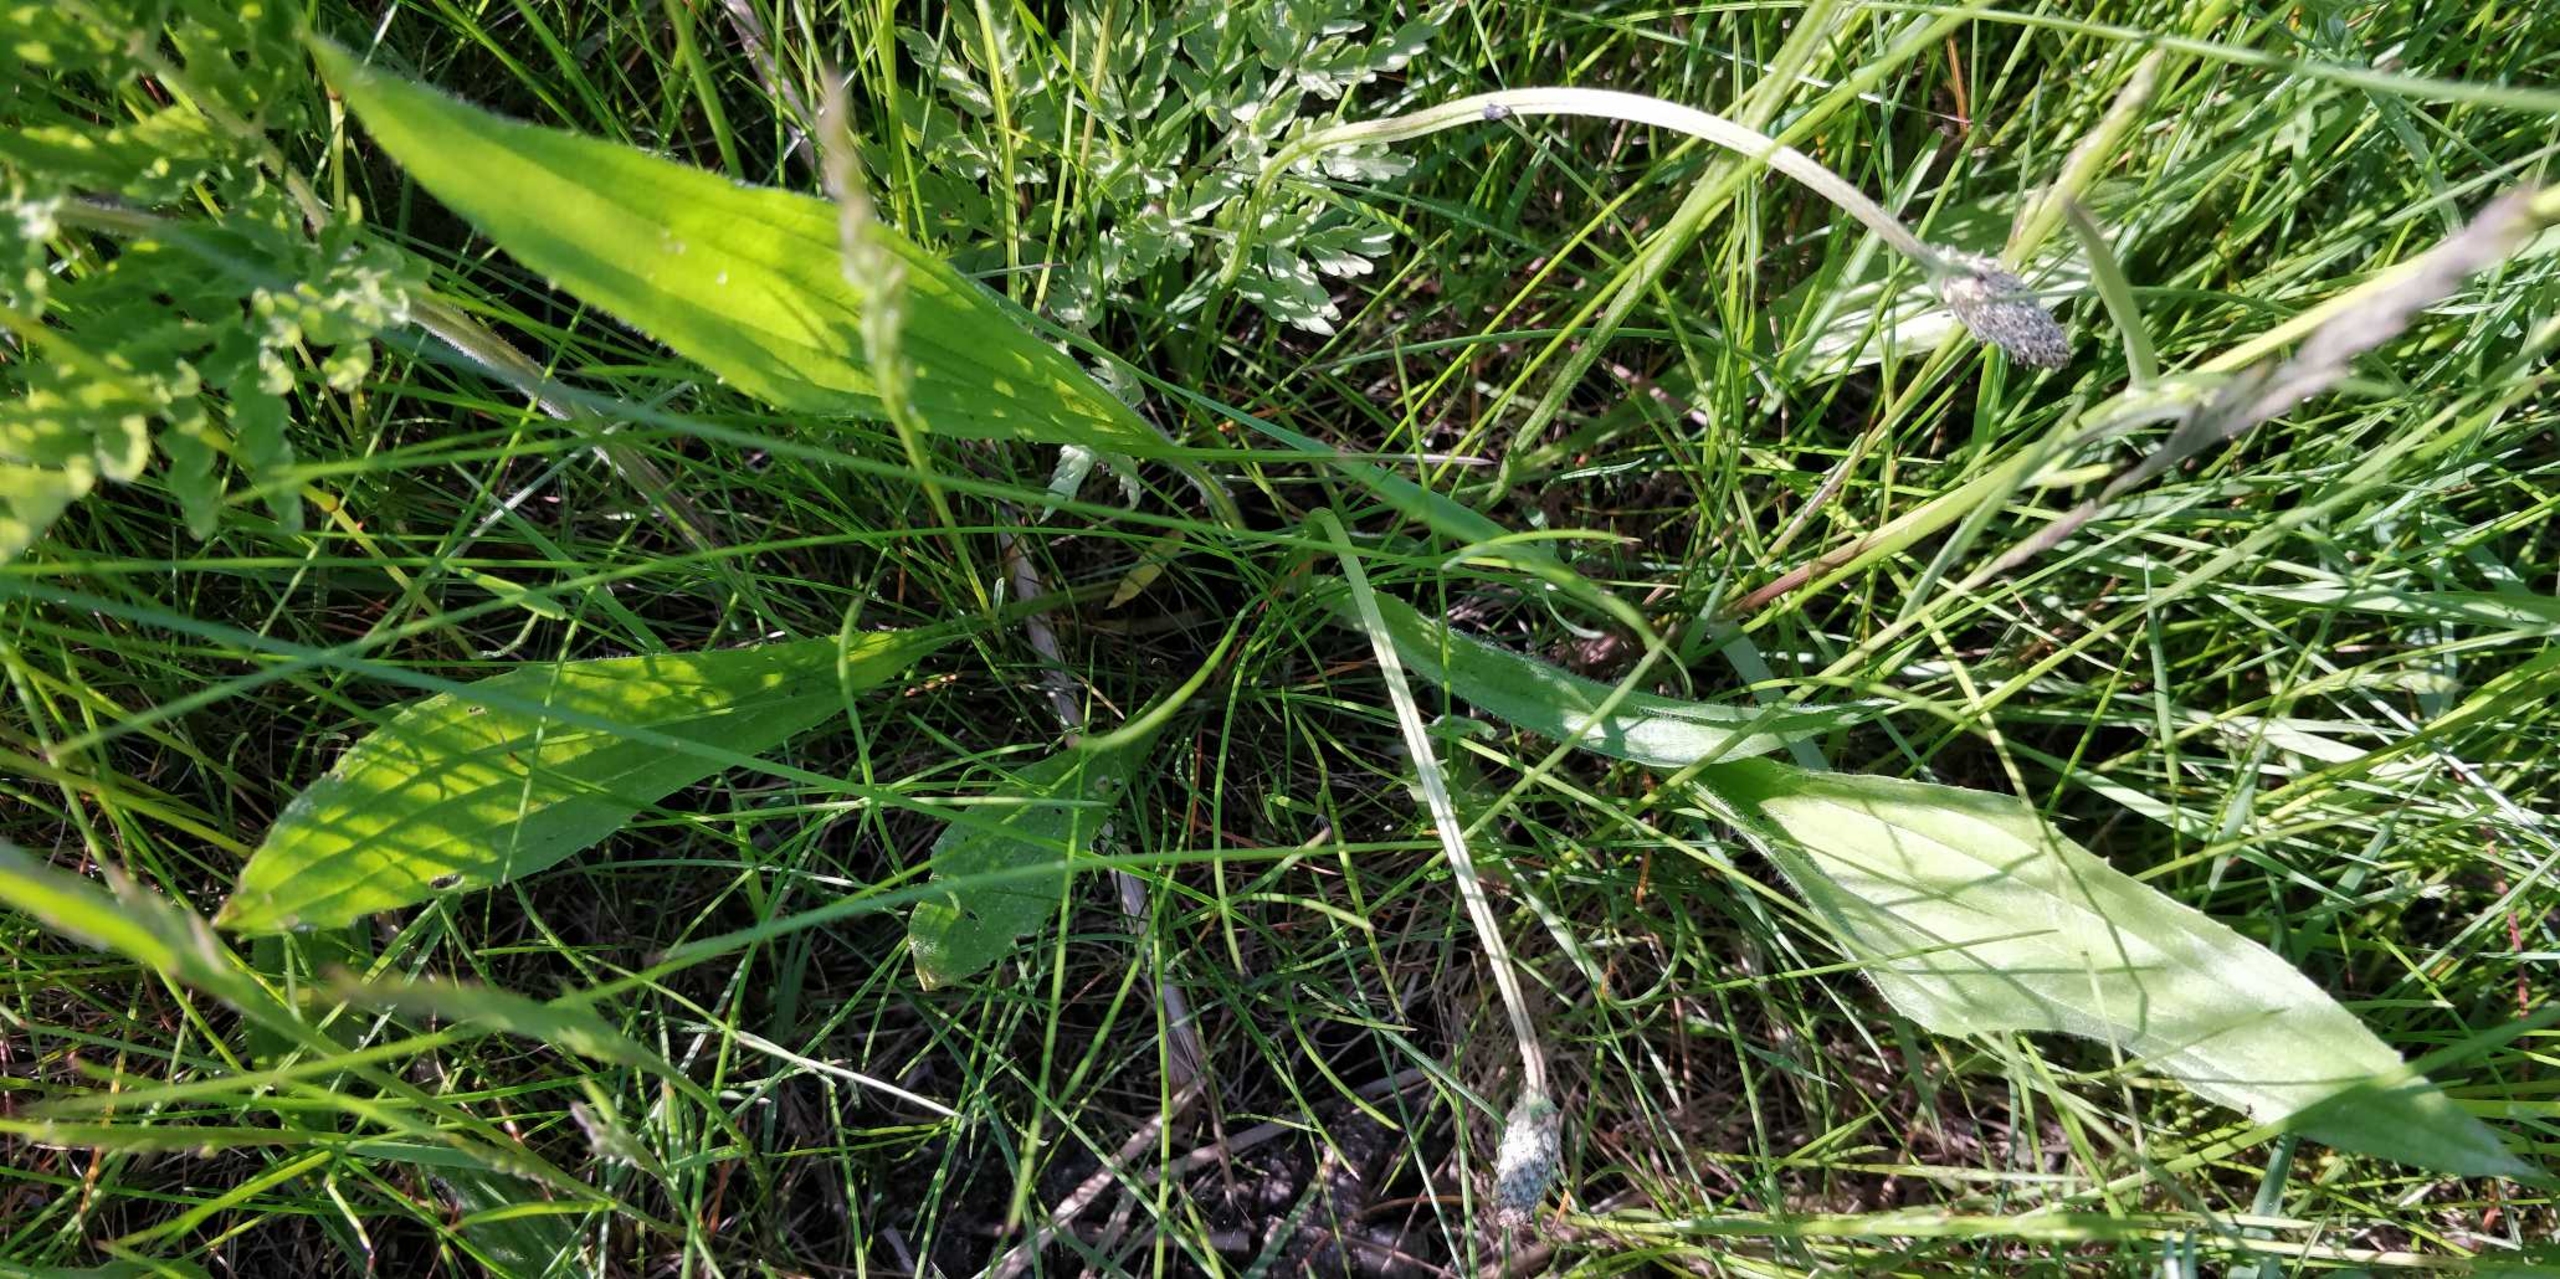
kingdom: Plantae
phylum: Tracheophyta
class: Magnoliopsida
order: Lamiales
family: Plantaginaceae
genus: Plantago
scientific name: Plantago lanceolata
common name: Lancet-vejbred
